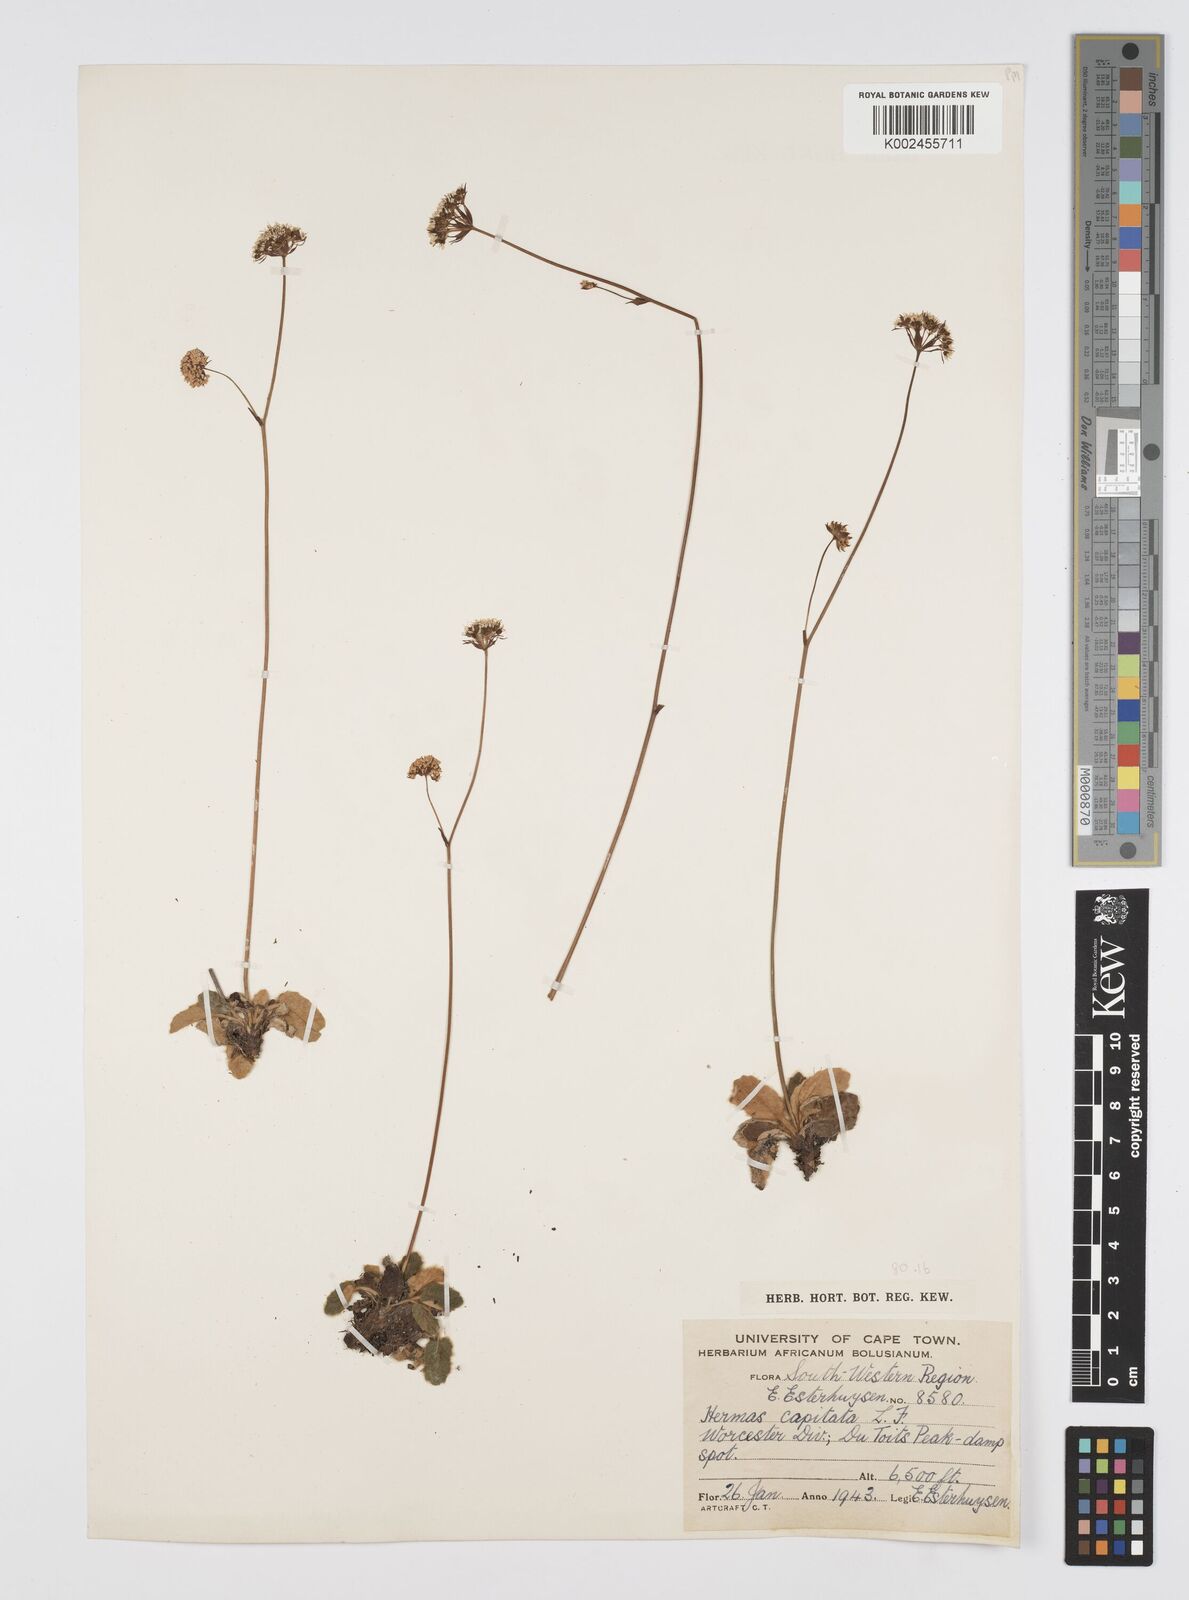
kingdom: Plantae
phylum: Tracheophyta
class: Magnoliopsida
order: Apiales
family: Apiaceae
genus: Hermas
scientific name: Hermas capitata
